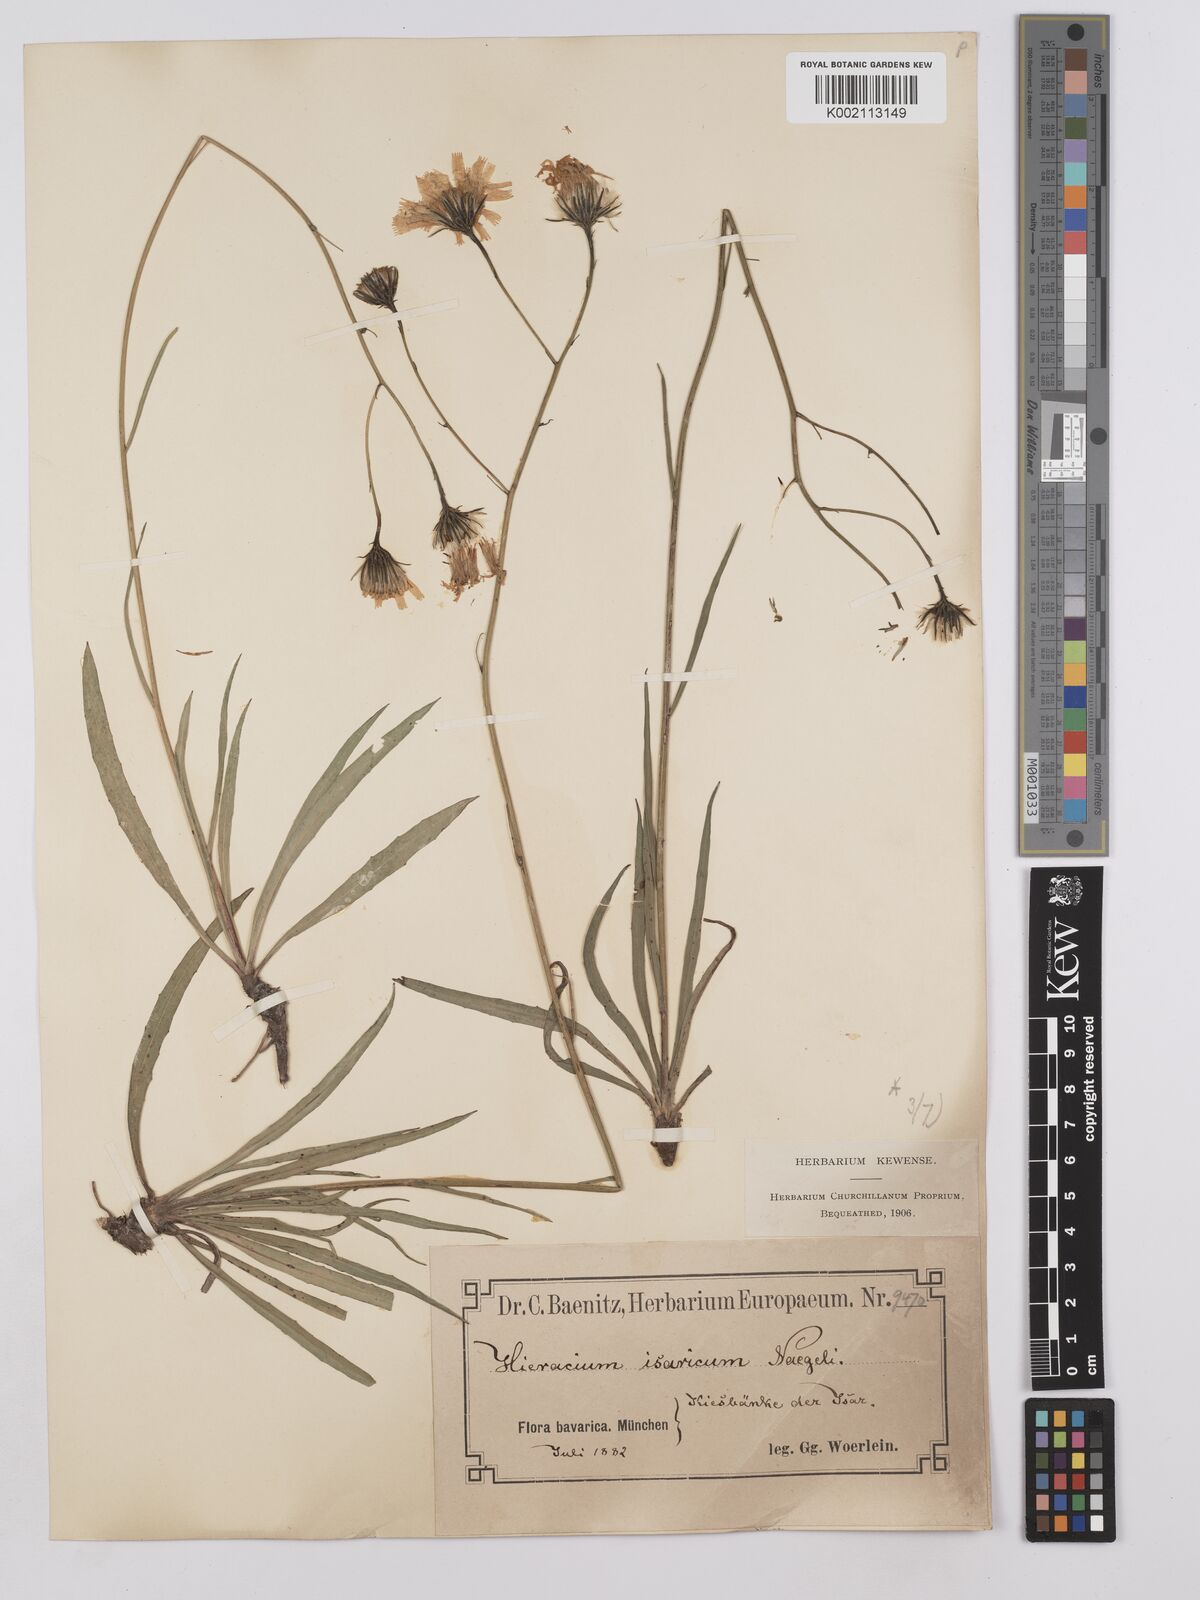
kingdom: Plantae
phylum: Tracheophyta
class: Magnoliopsida
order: Asterales
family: Asteraceae
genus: Hieracium
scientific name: Hieracium glaucum
